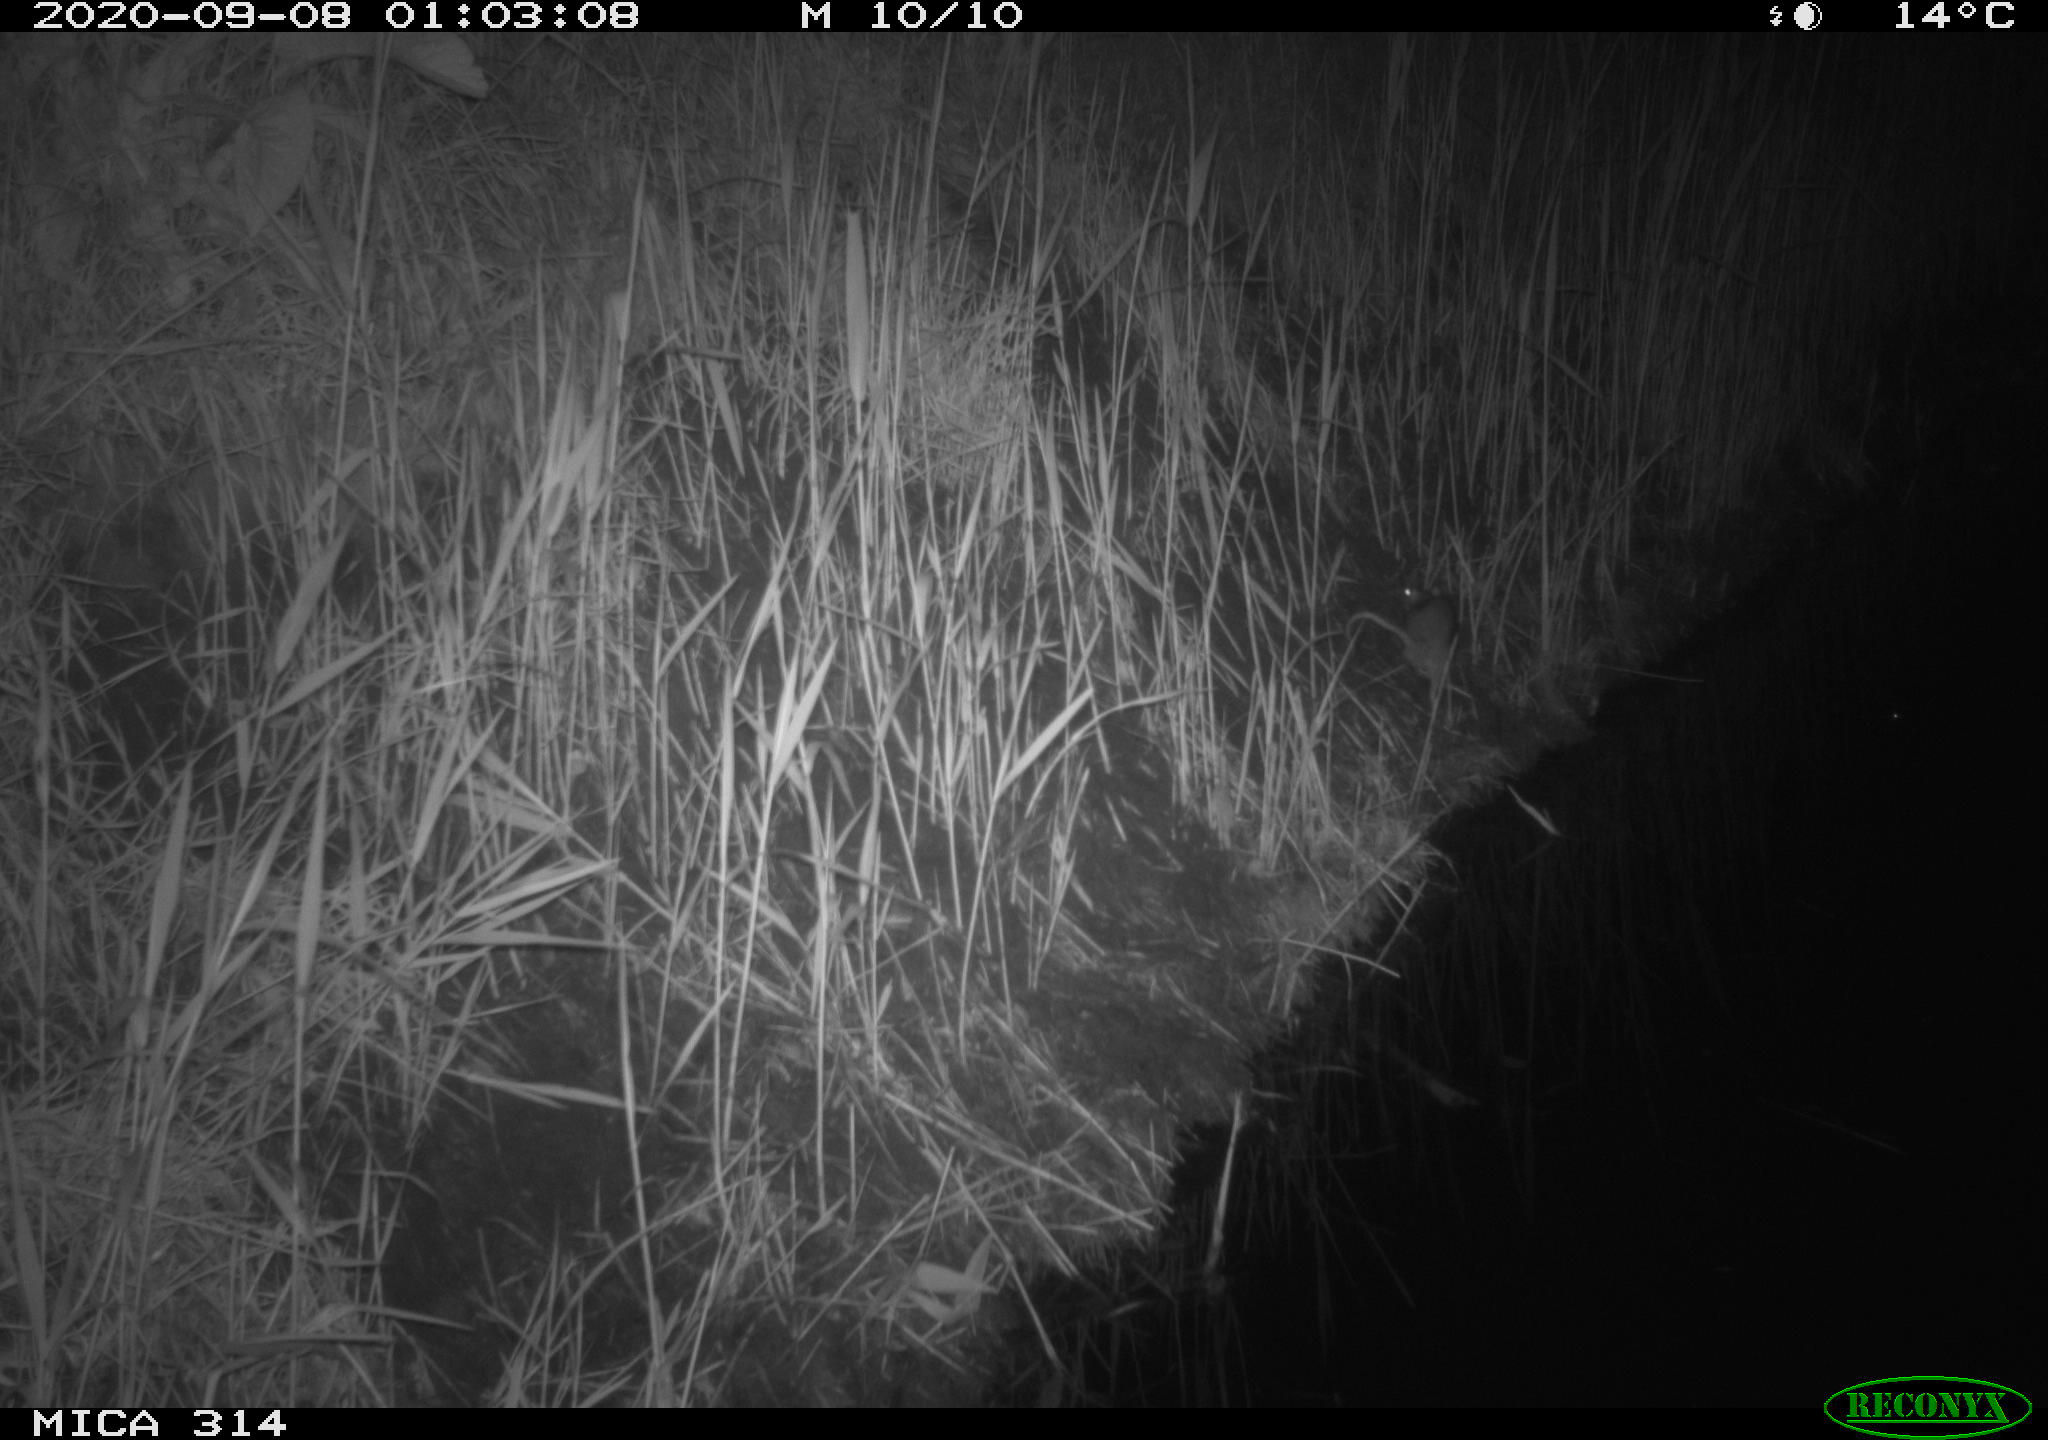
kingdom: Animalia
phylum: Chordata
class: Mammalia
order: Rodentia
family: Muridae
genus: Rattus
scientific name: Rattus norvegicus
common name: Brown rat
